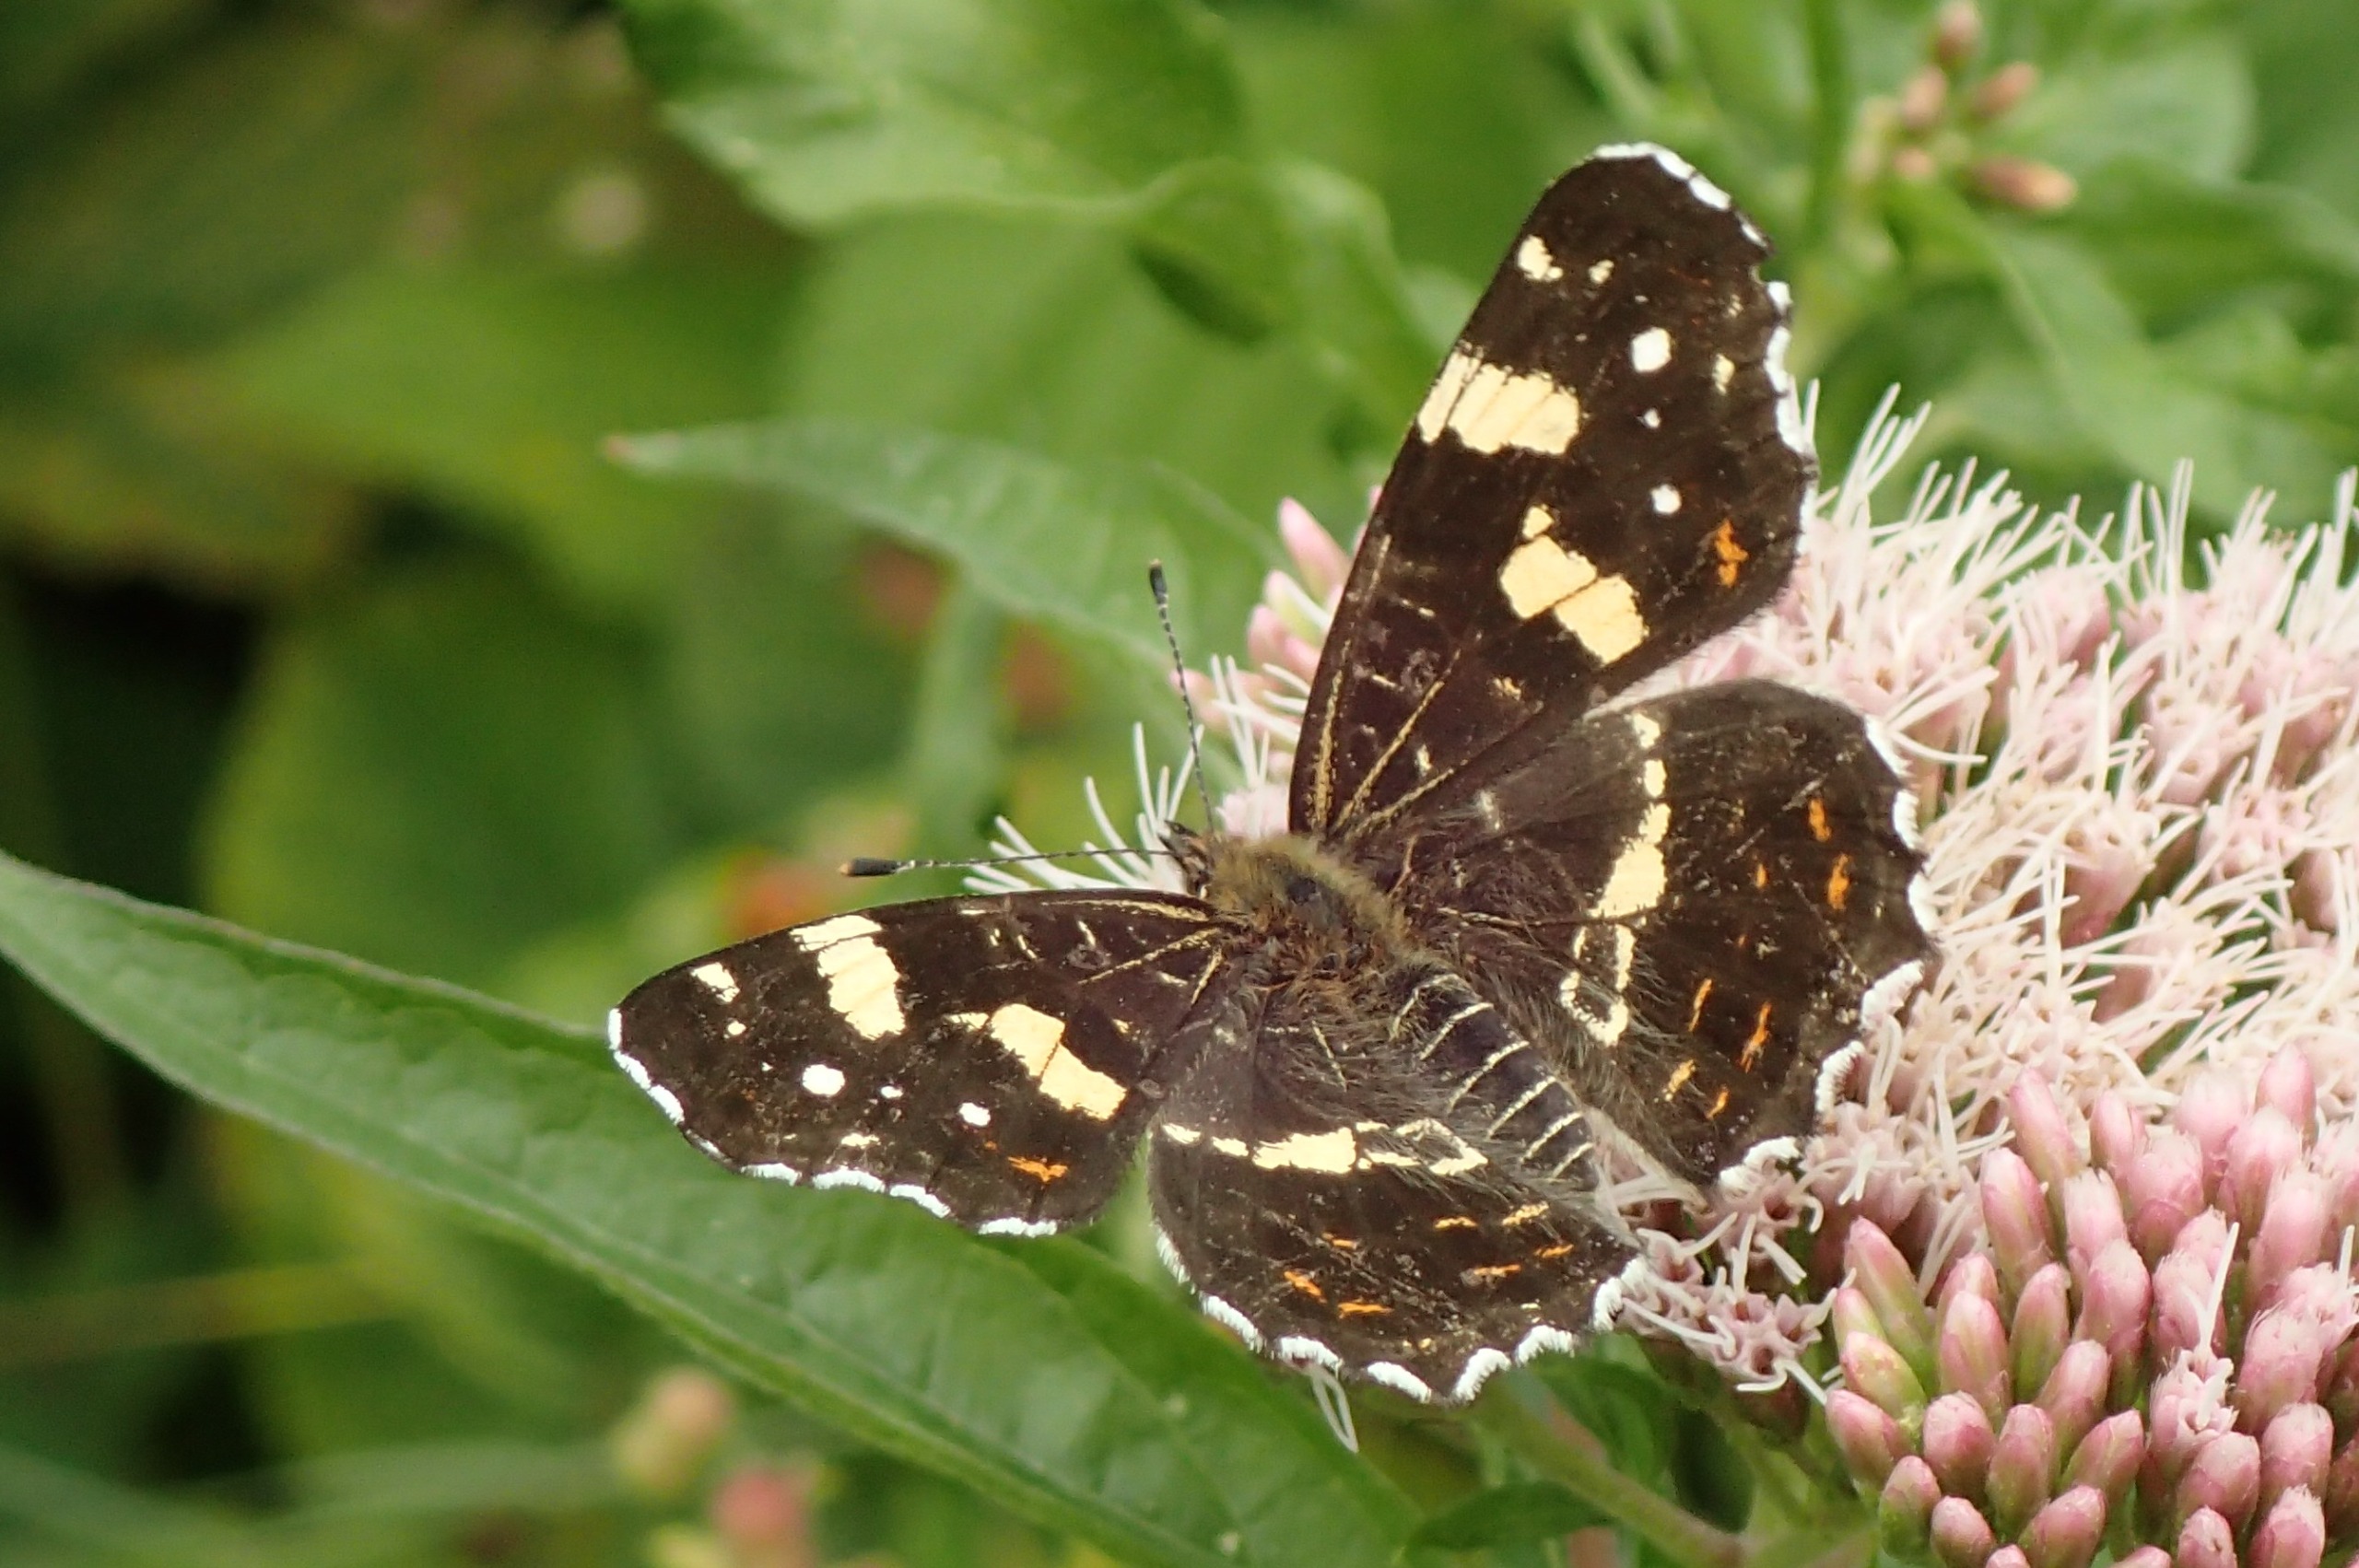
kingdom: Animalia
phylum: Arthropoda
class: Insecta
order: Lepidoptera
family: Nymphalidae
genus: Araschnia
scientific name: Araschnia levana
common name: Nældesommerfugl
